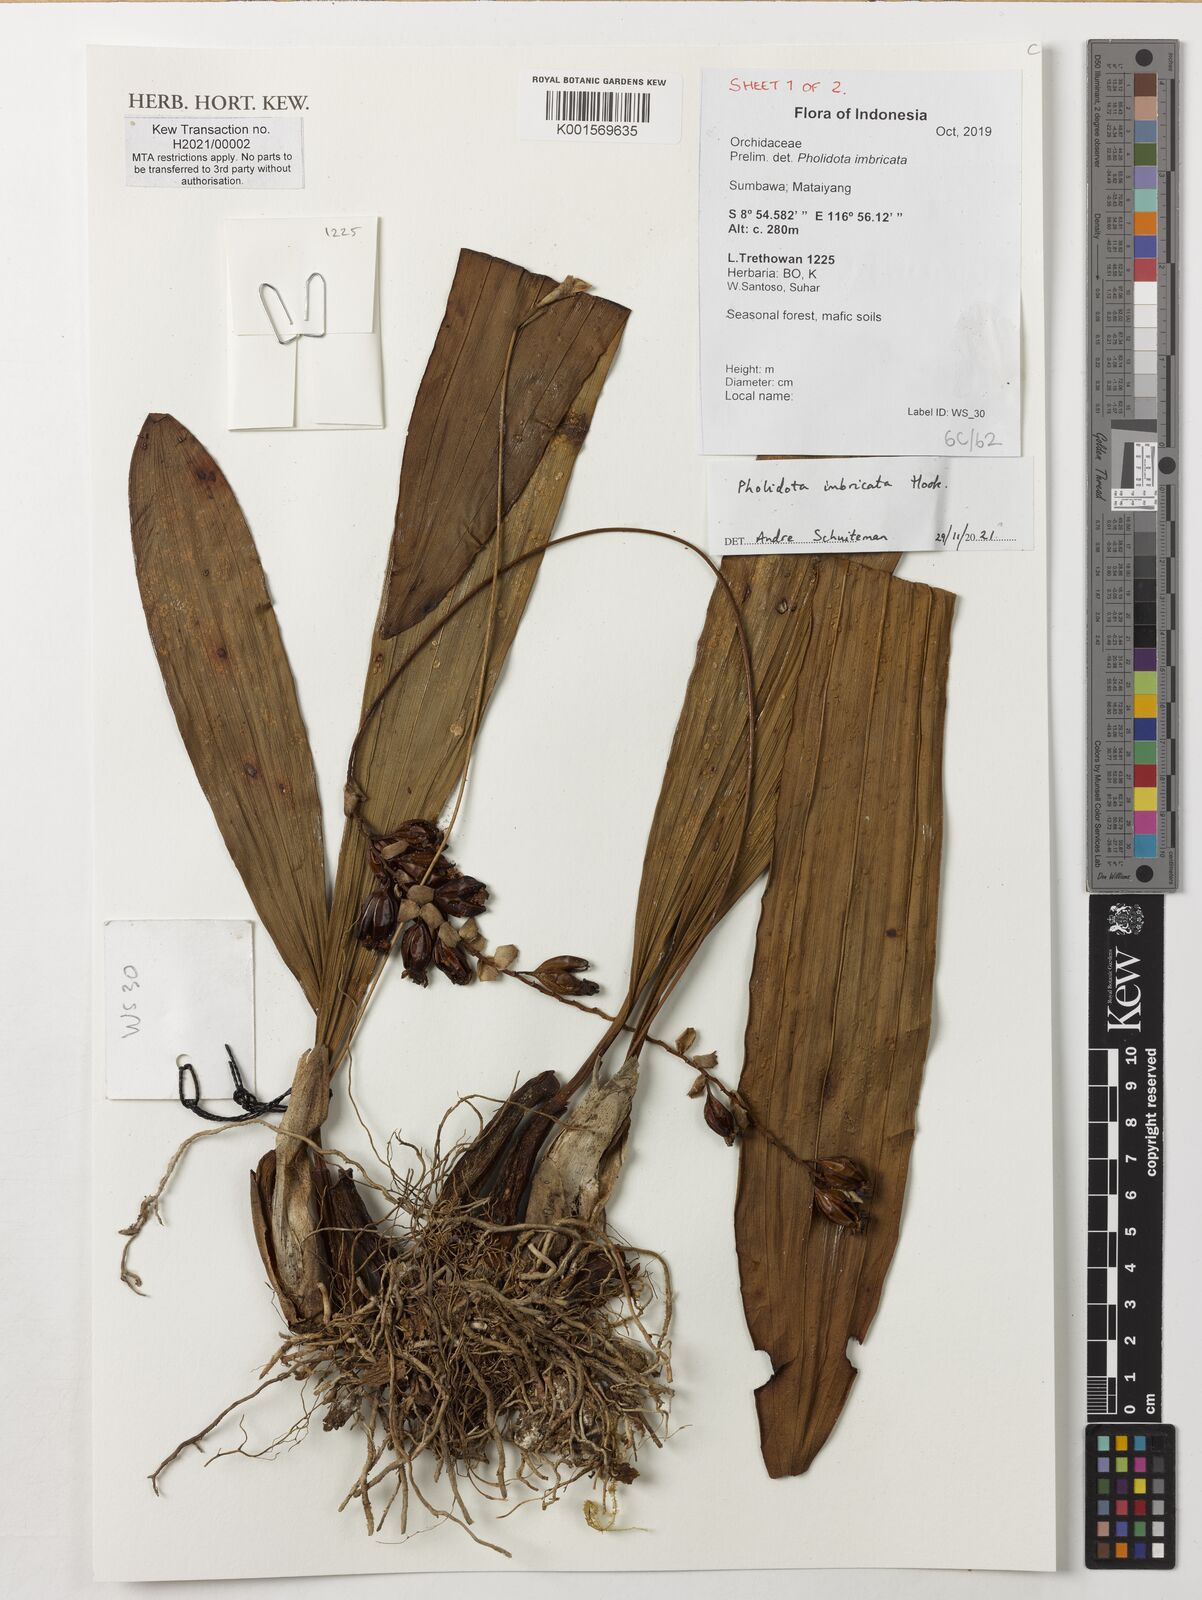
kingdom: Plantae
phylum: Tracheophyta
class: Liliopsida
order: Asparagales
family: Orchidaceae
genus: Coelogyne
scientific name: Coelogyne imbricata
